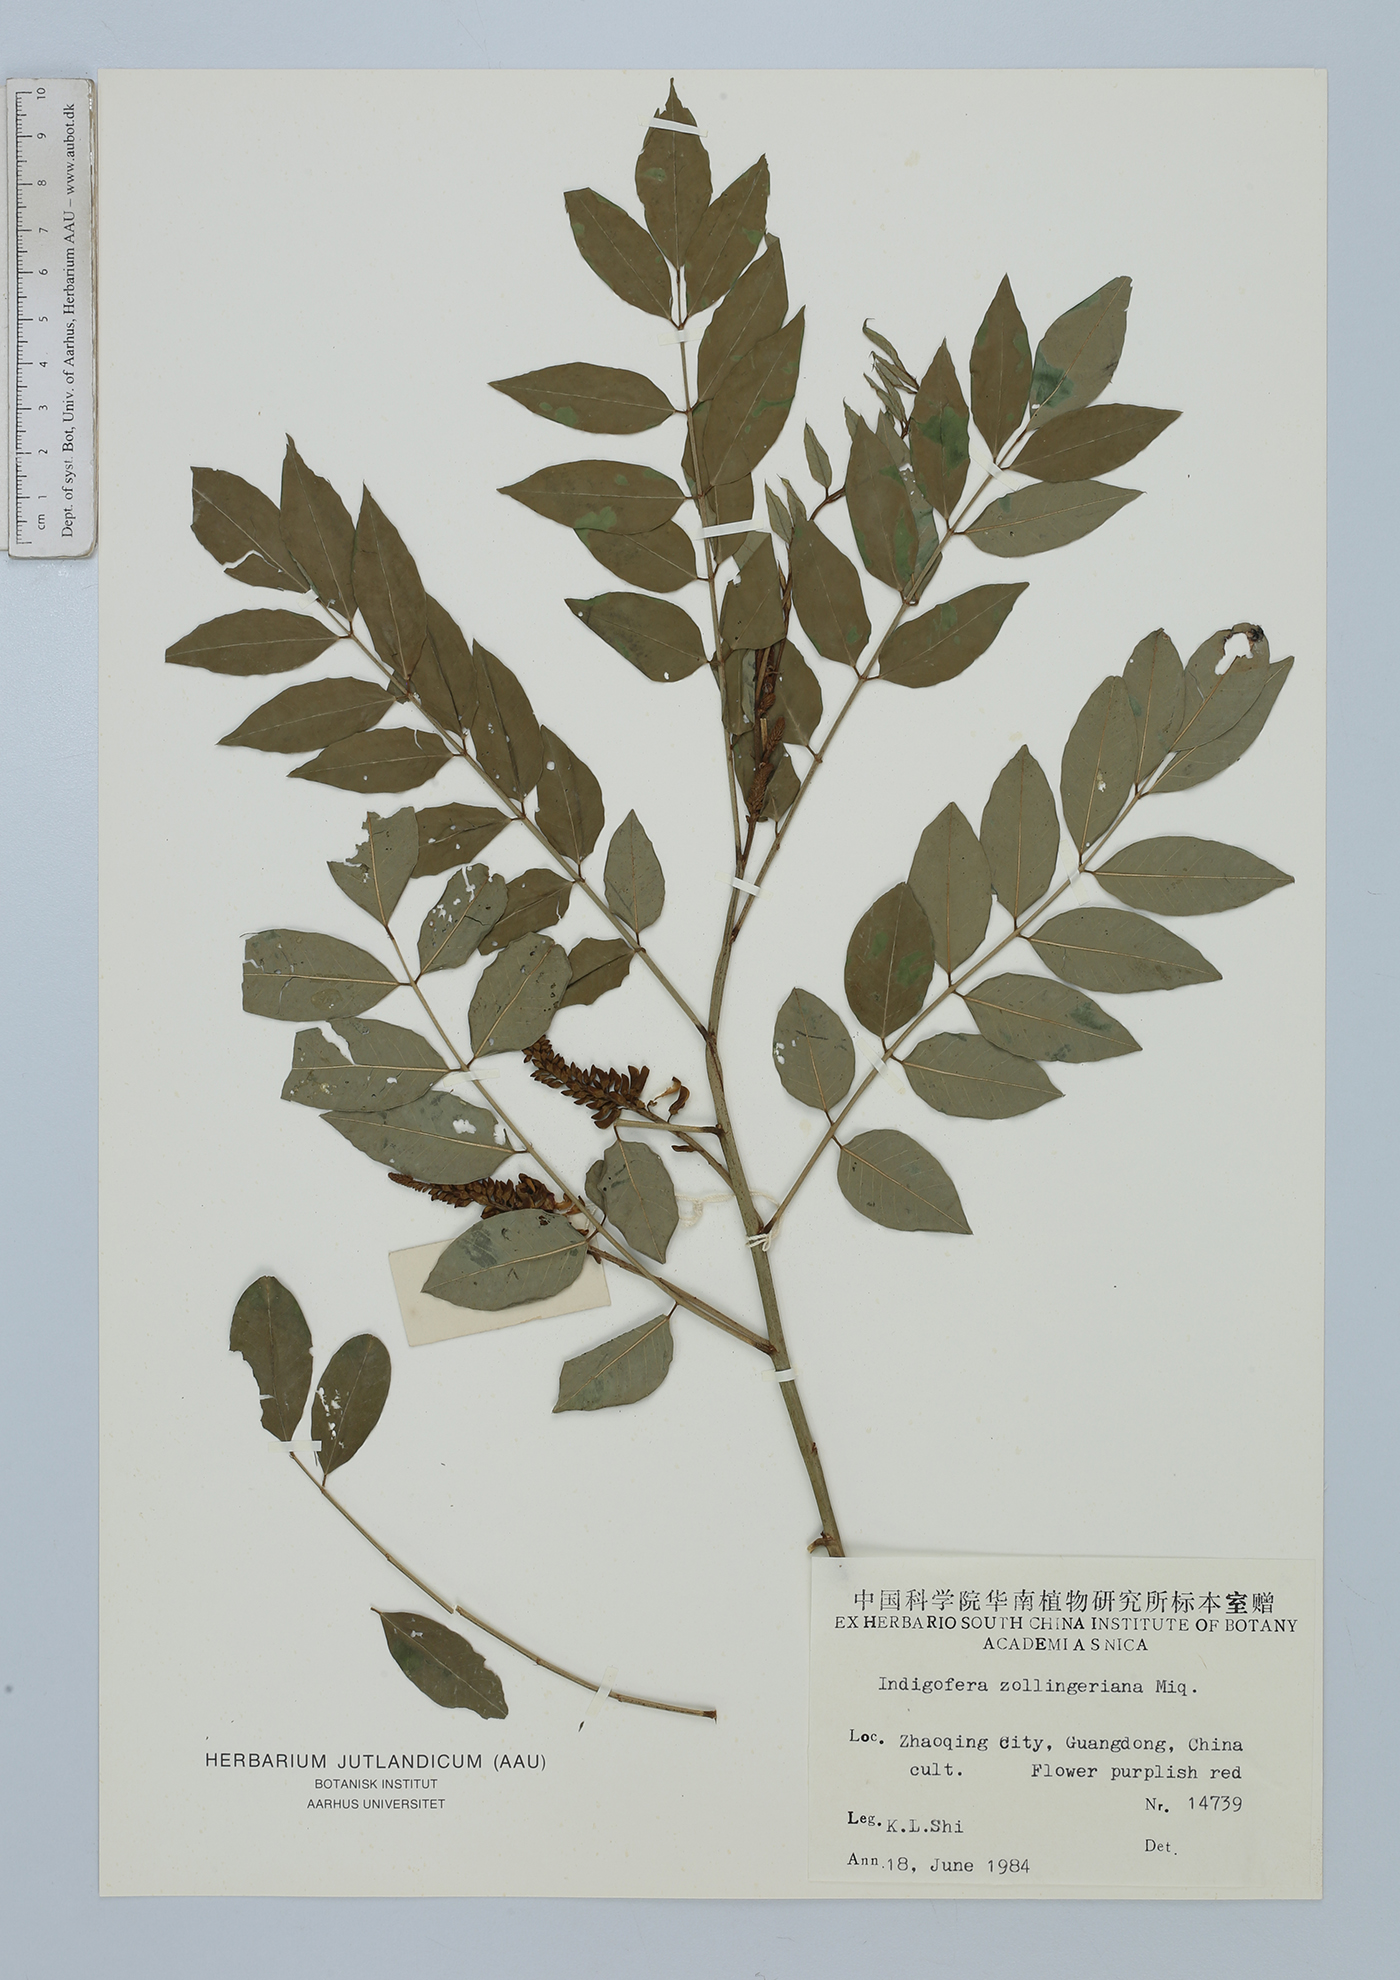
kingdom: Plantae
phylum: Tracheophyta
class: Magnoliopsida
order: Fabales
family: Fabaceae
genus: Indigofera
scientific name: Indigofera zollingeriana
